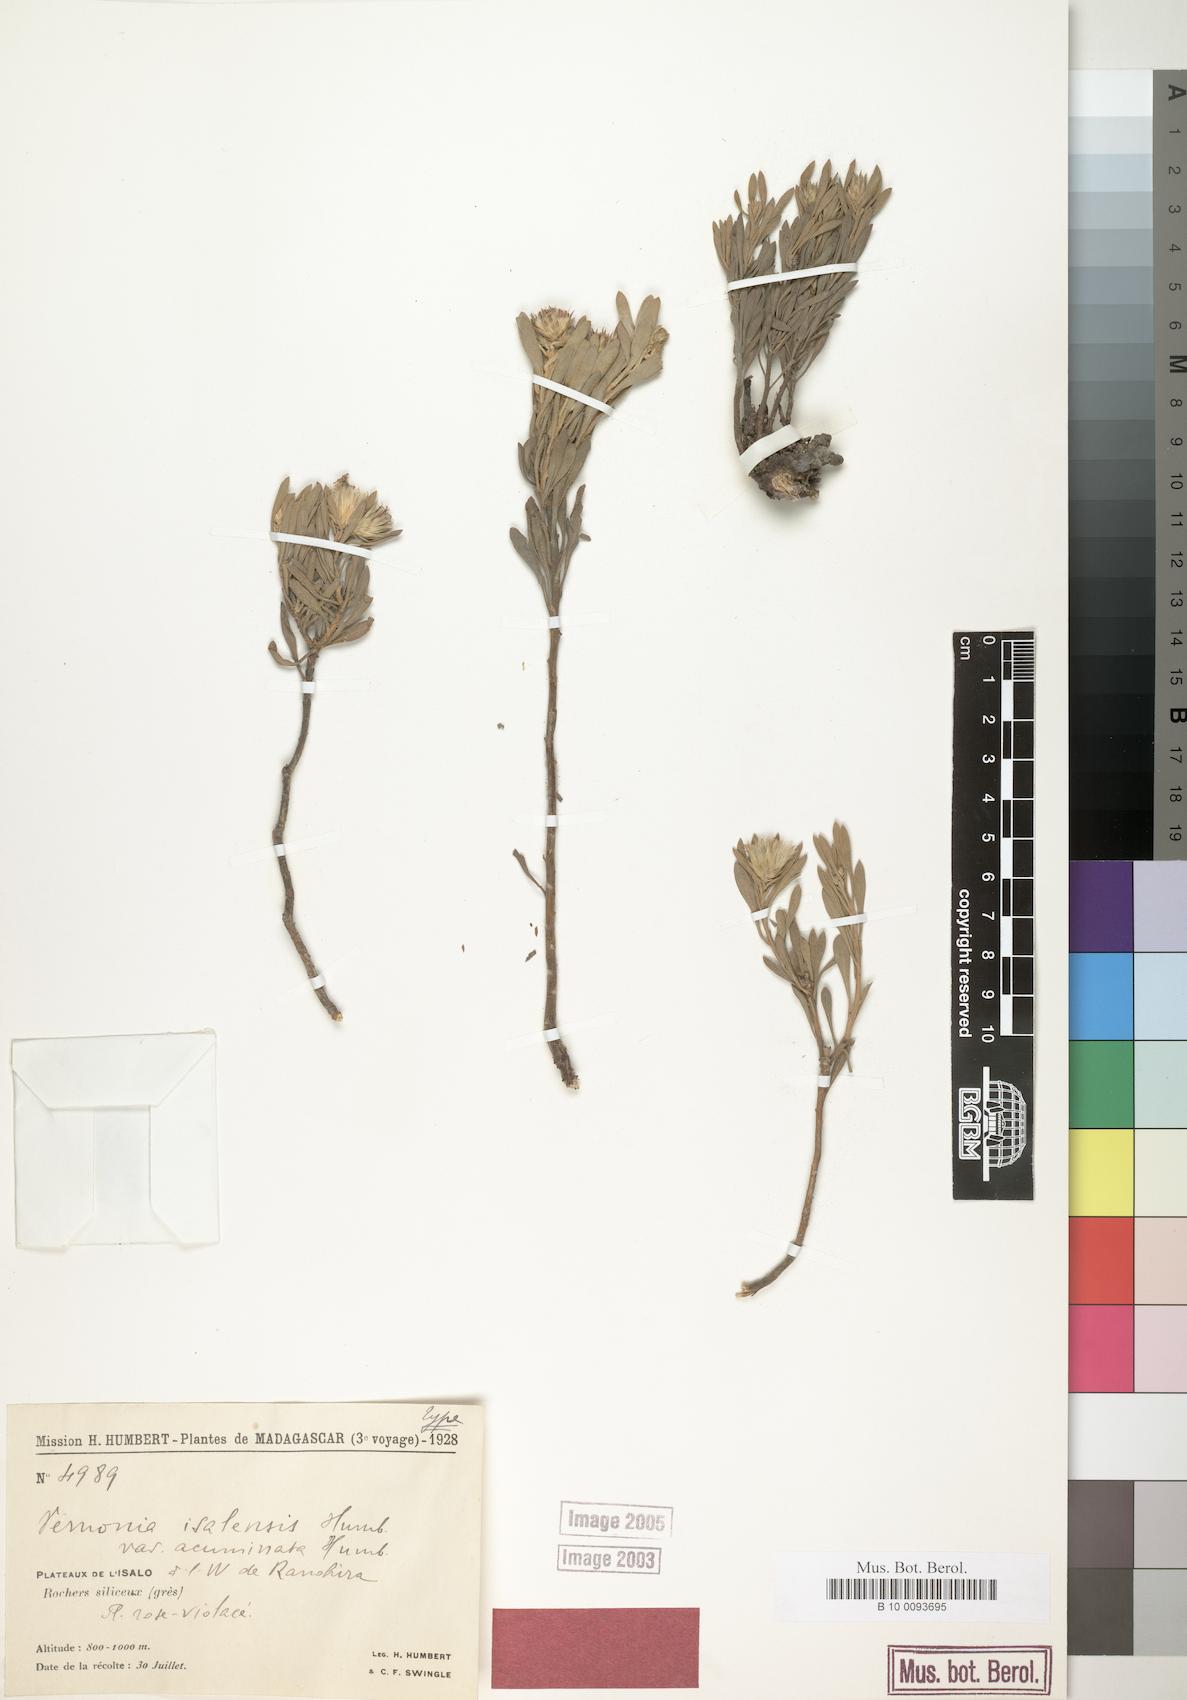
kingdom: Plantae
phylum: Tracheophyta
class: Magnoliopsida
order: Asterales
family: Asteraceae
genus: Vernonia
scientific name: Vernonia isalensis
